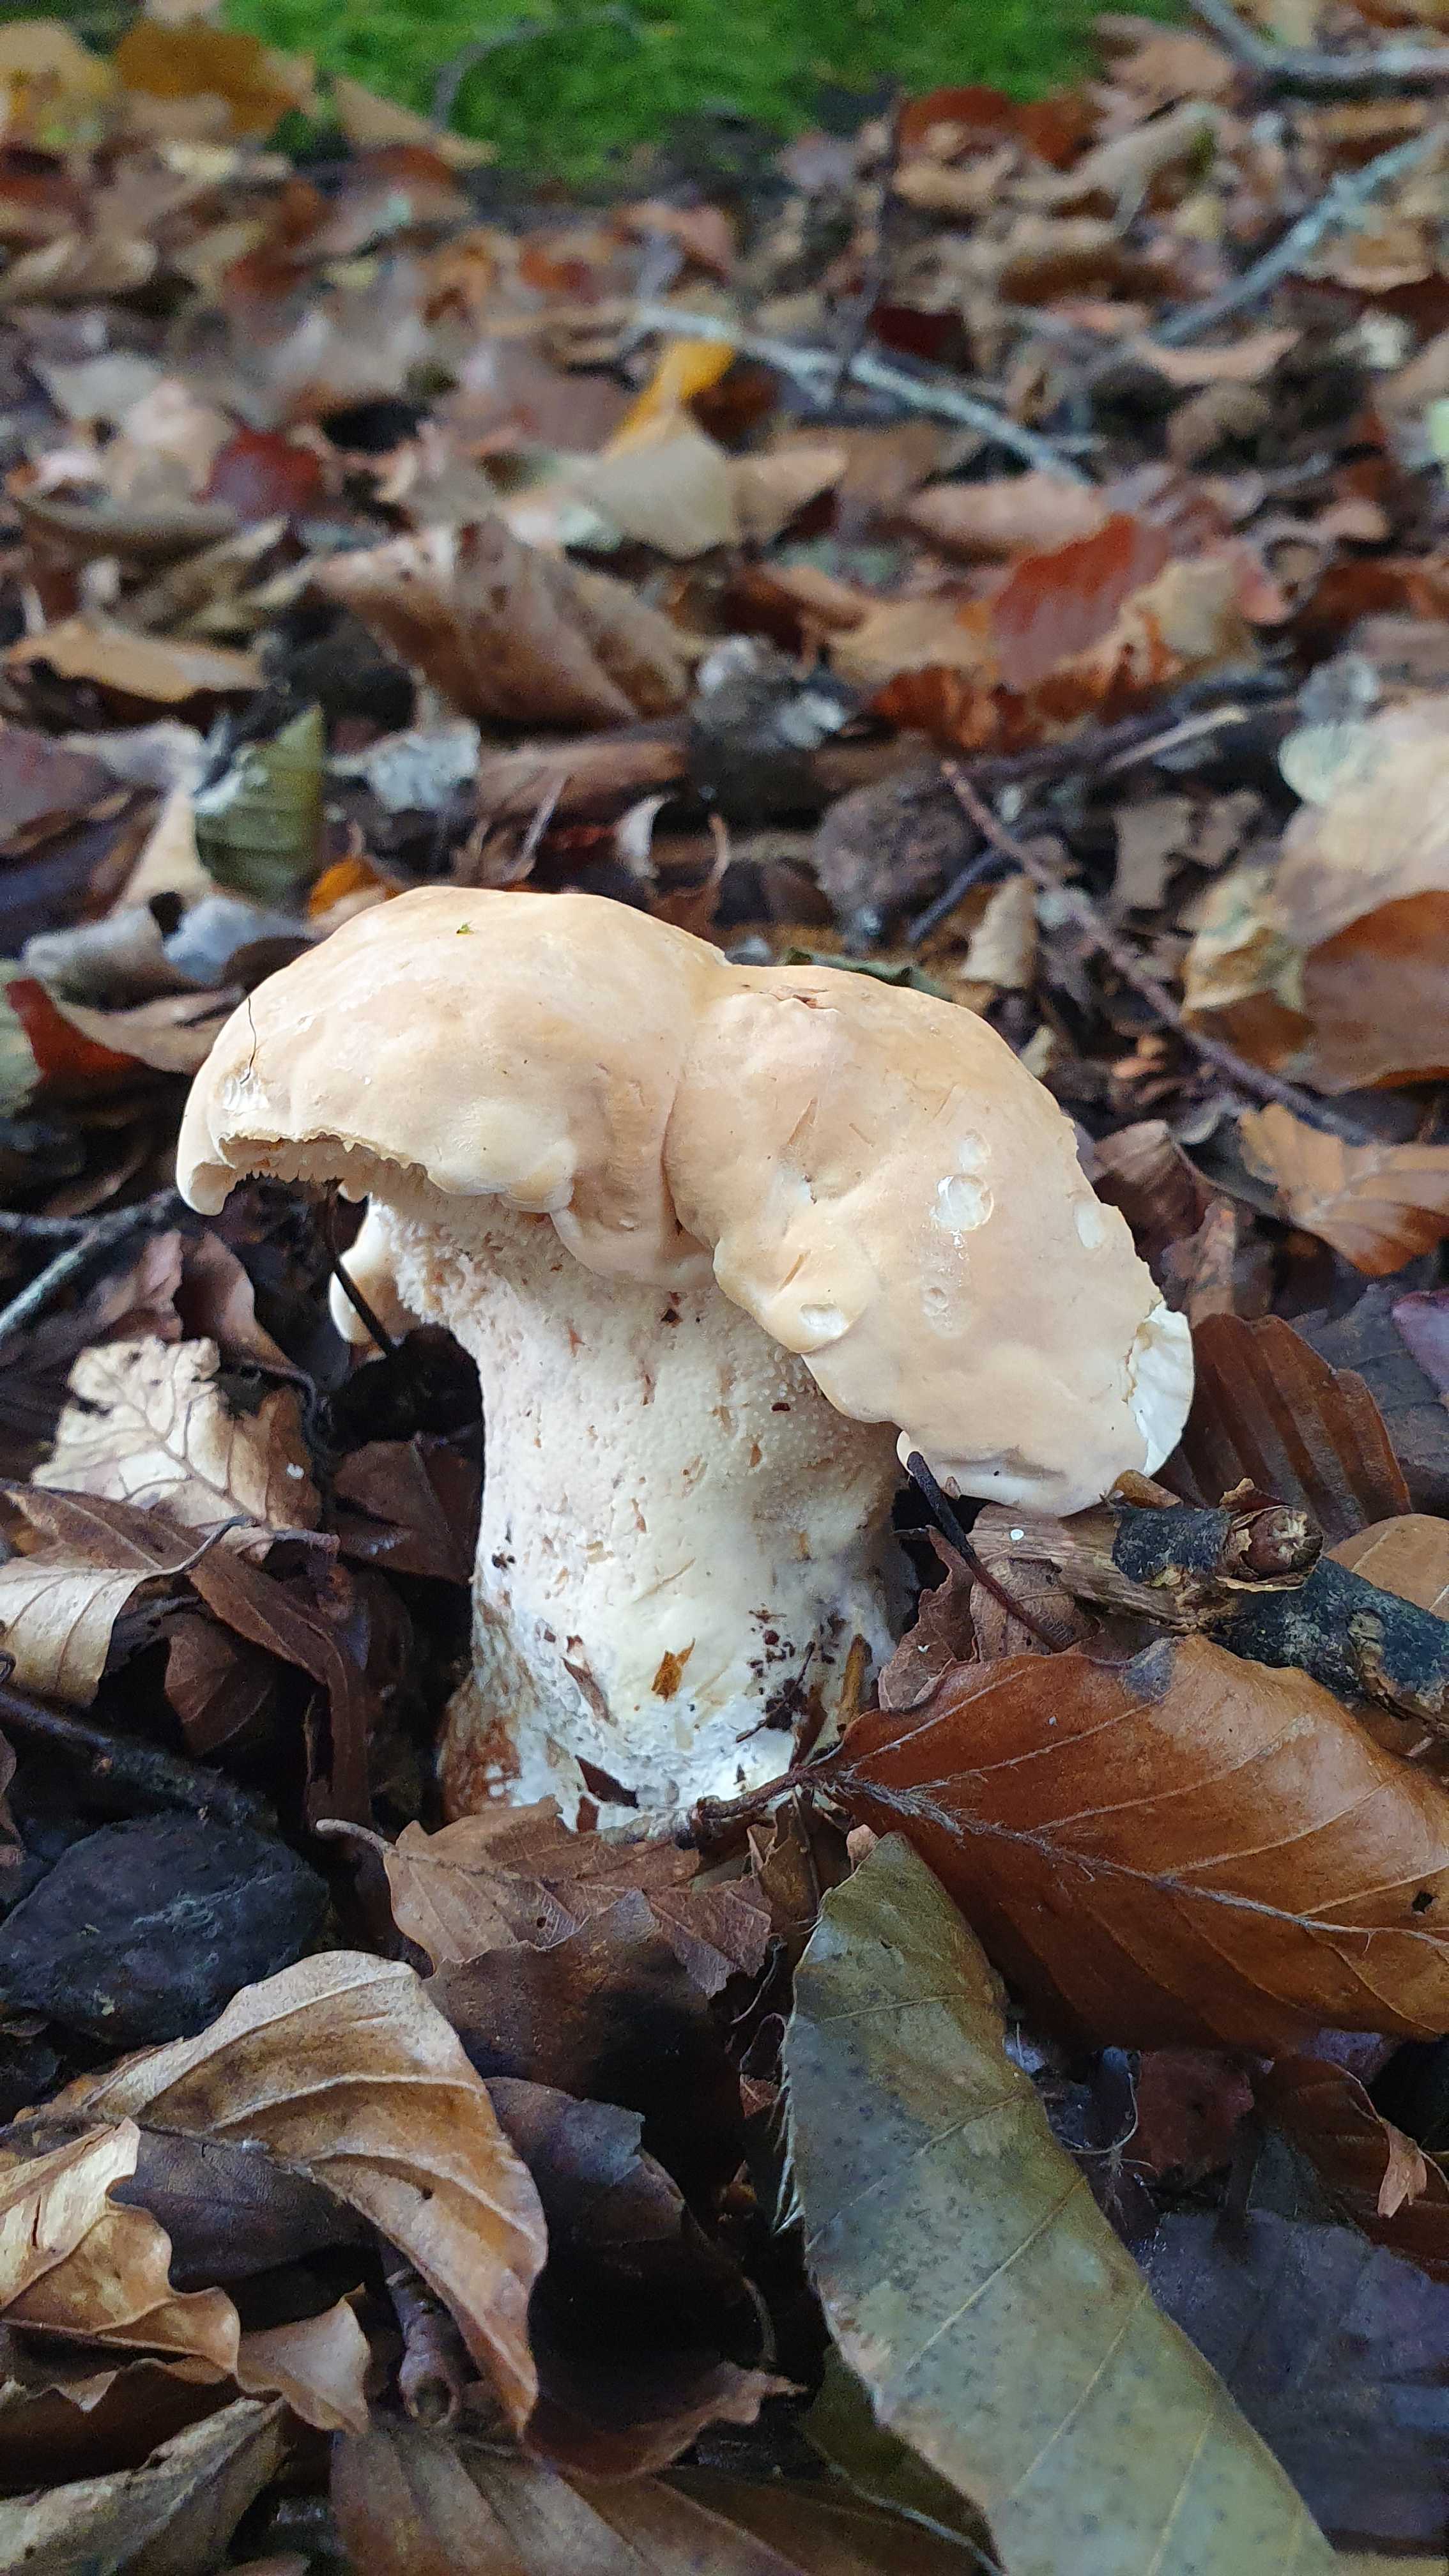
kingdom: Fungi
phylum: Basidiomycota
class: Agaricomycetes
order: Cantharellales
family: Hydnaceae
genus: Hydnum
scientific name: Hydnum repandum
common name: almindelig pigsvamp
